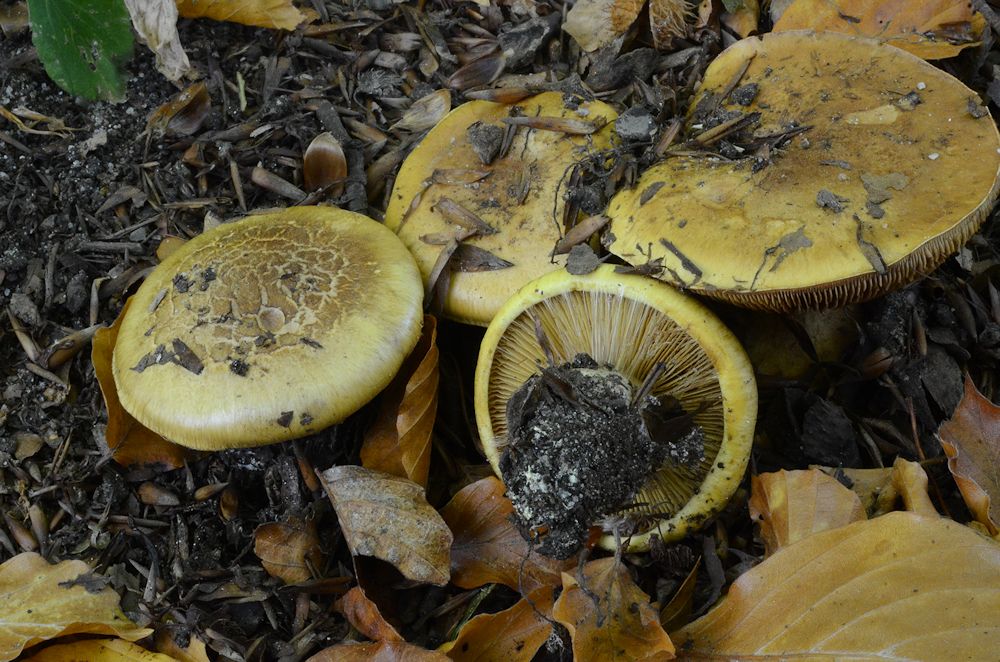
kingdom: Fungi
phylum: Basidiomycota
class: Agaricomycetes
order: Agaricales
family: Cortinariaceae
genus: Calonarius
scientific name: Calonarius alcalinophilus
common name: gyldenbrun slørhat
